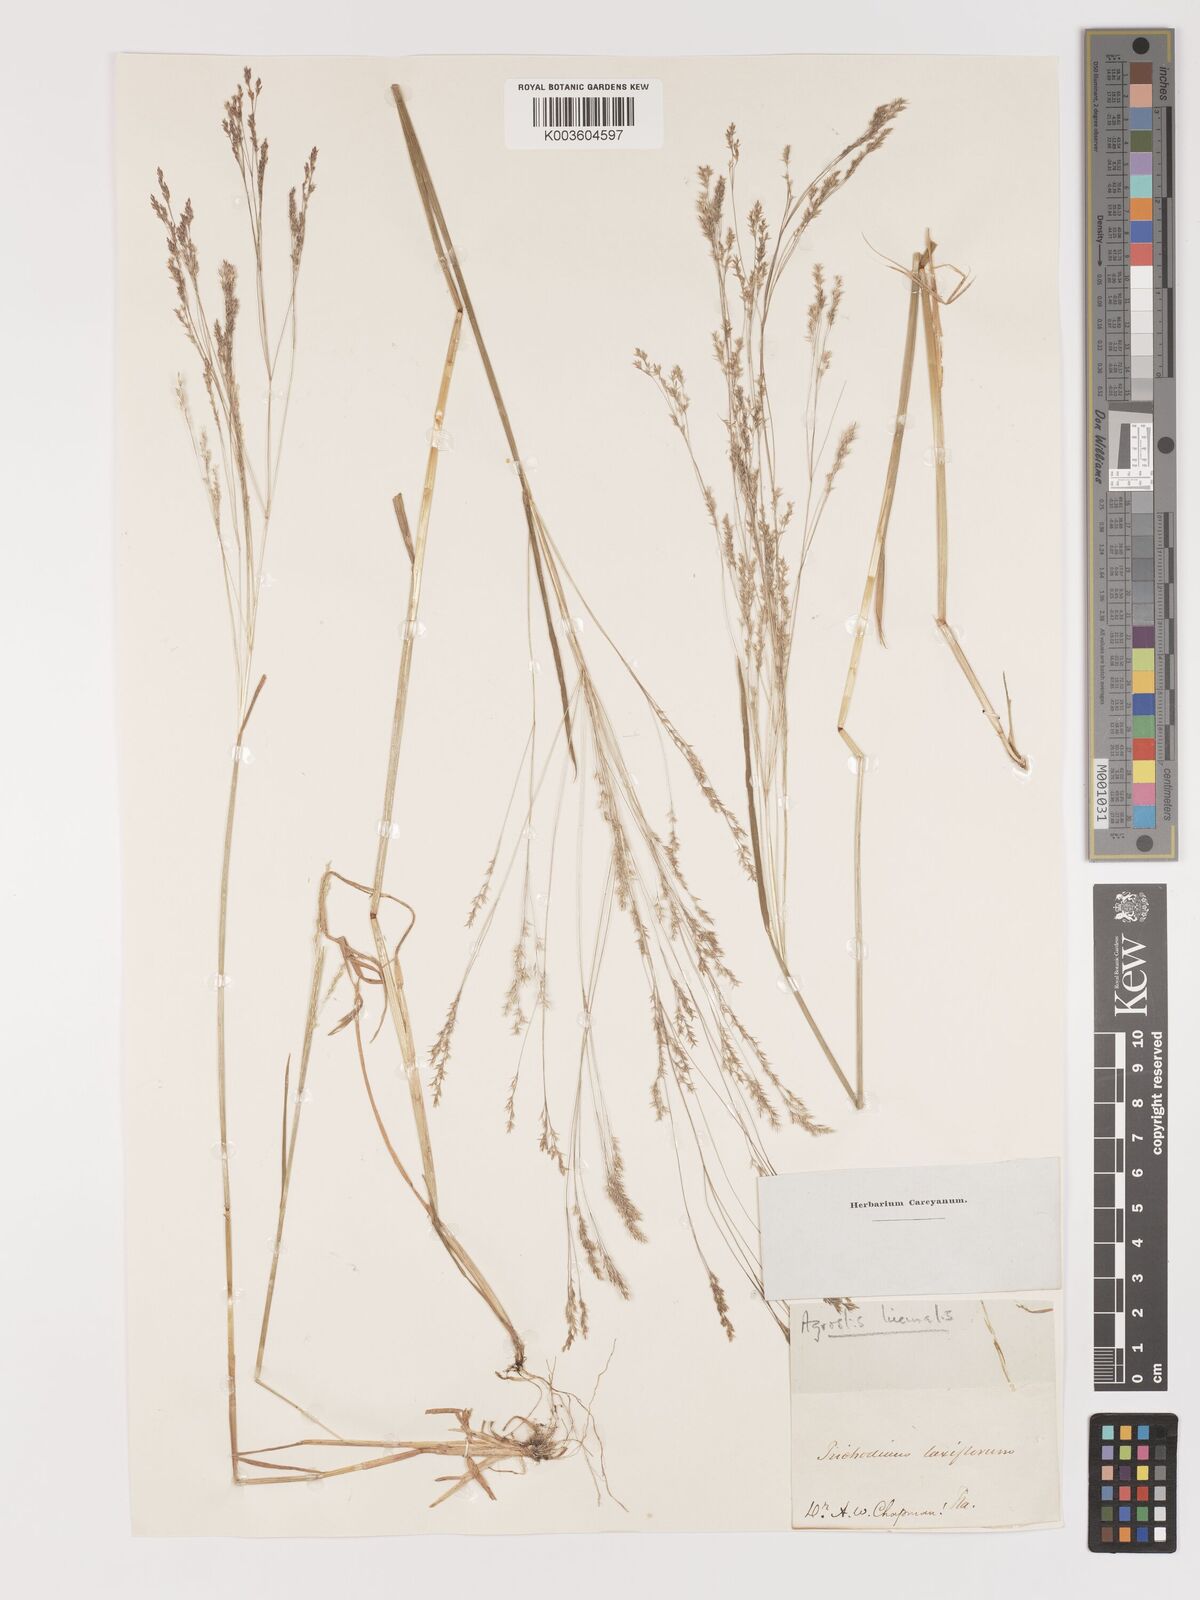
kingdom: Plantae
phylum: Tracheophyta
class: Liliopsida
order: Poales
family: Poaceae
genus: Agrostis
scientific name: Agrostis hyemalis
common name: Small bent
